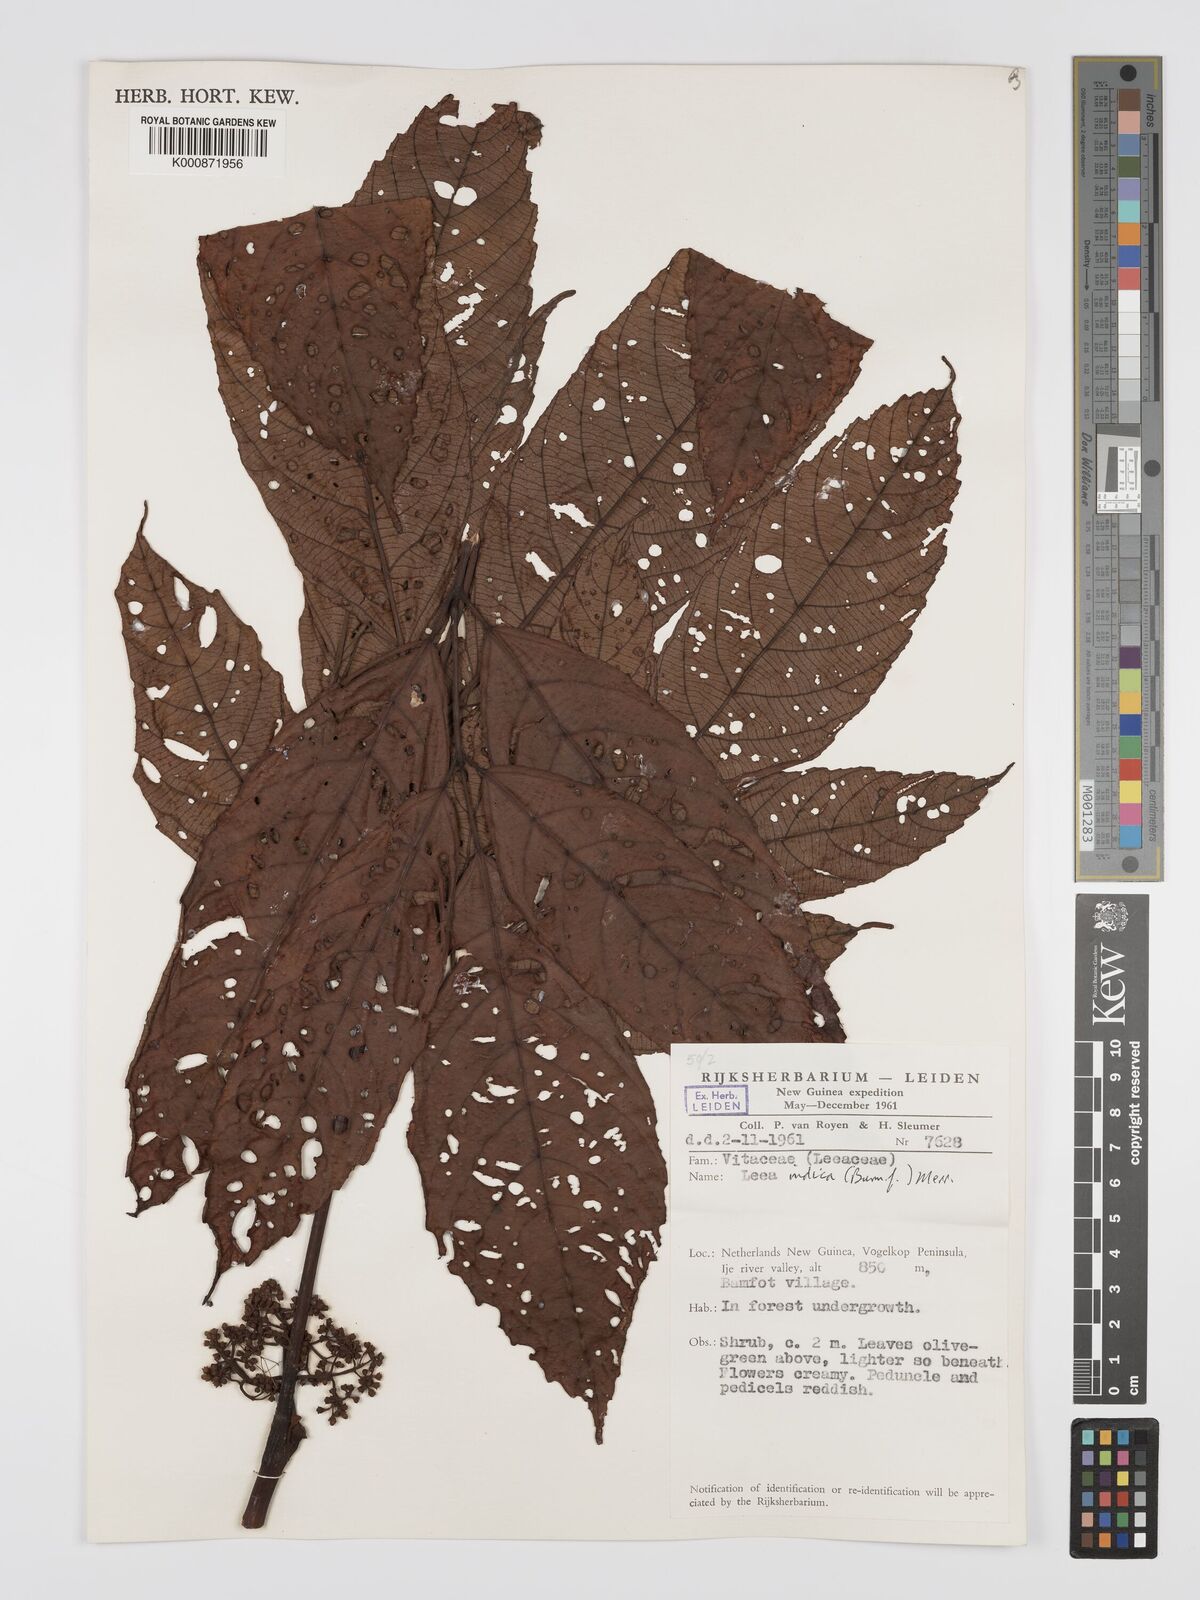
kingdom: Plantae
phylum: Tracheophyta
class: Magnoliopsida
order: Vitales
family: Vitaceae
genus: Leea
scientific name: Leea indica
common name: Bandicoot-berry
